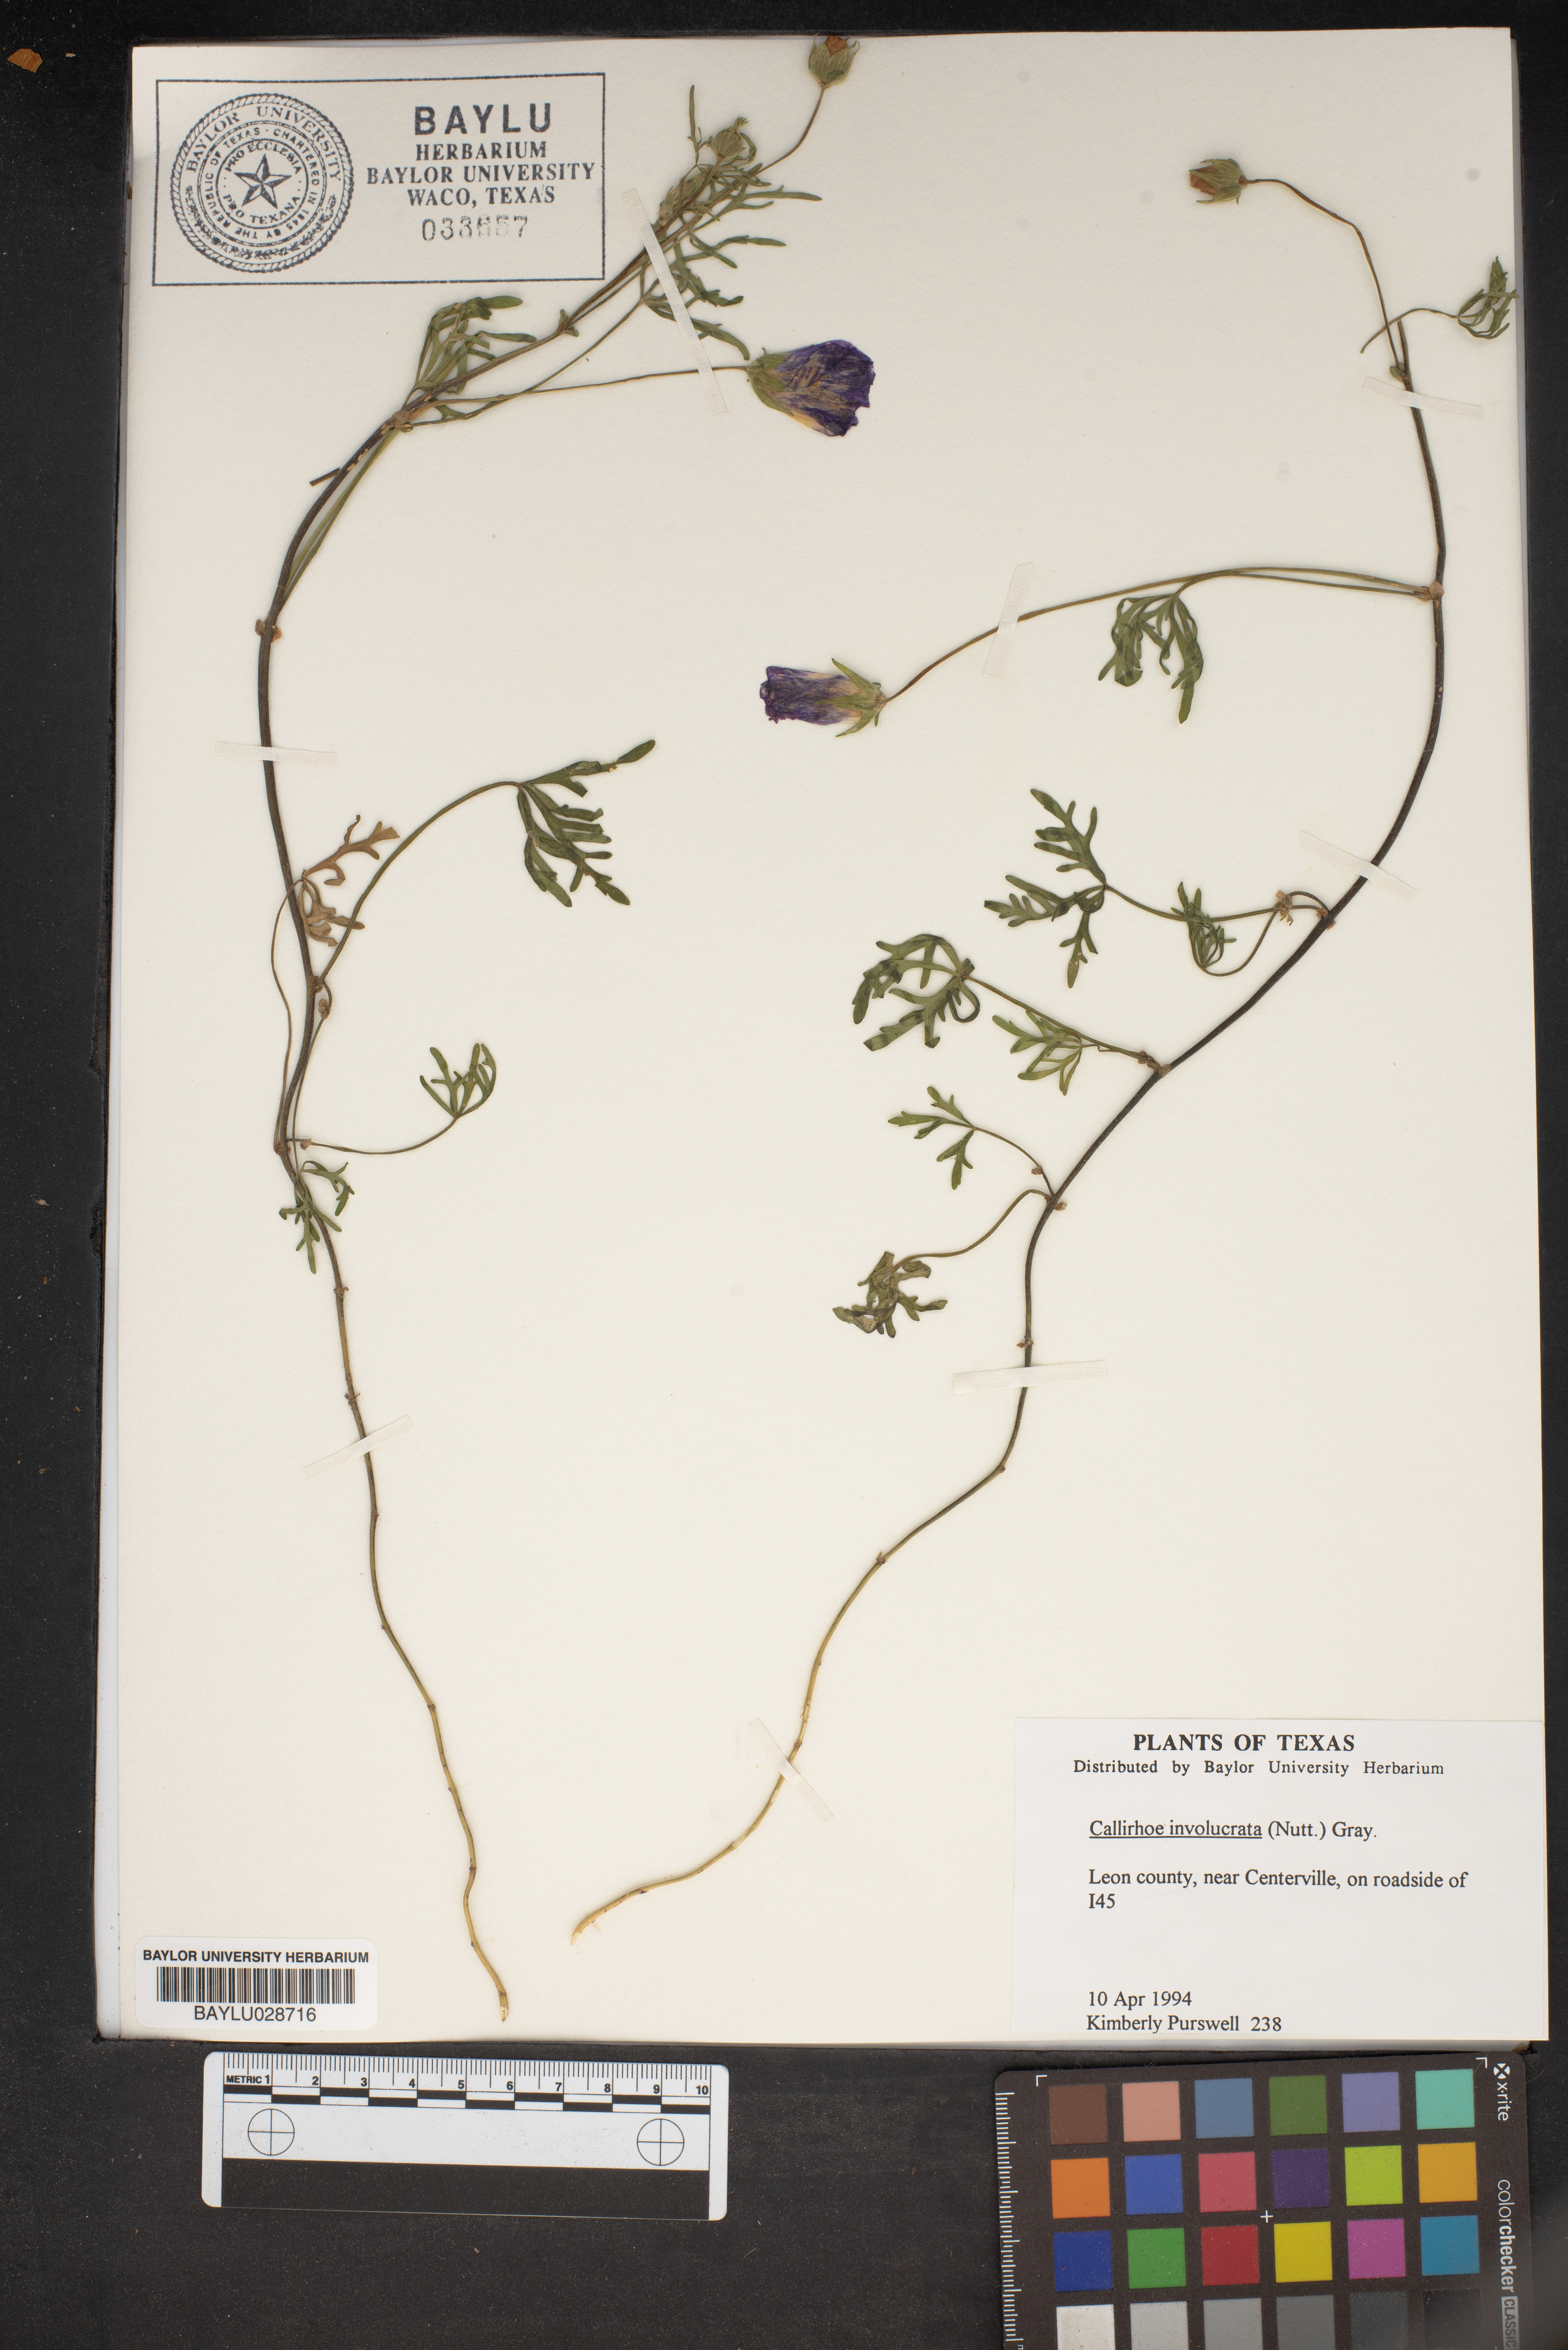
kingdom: Plantae
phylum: Tracheophyta
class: Magnoliopsida
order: Malvales
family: Malvaceae
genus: Callirhoe
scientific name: Callirhoe involucrata
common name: Purple poppy-mallow
